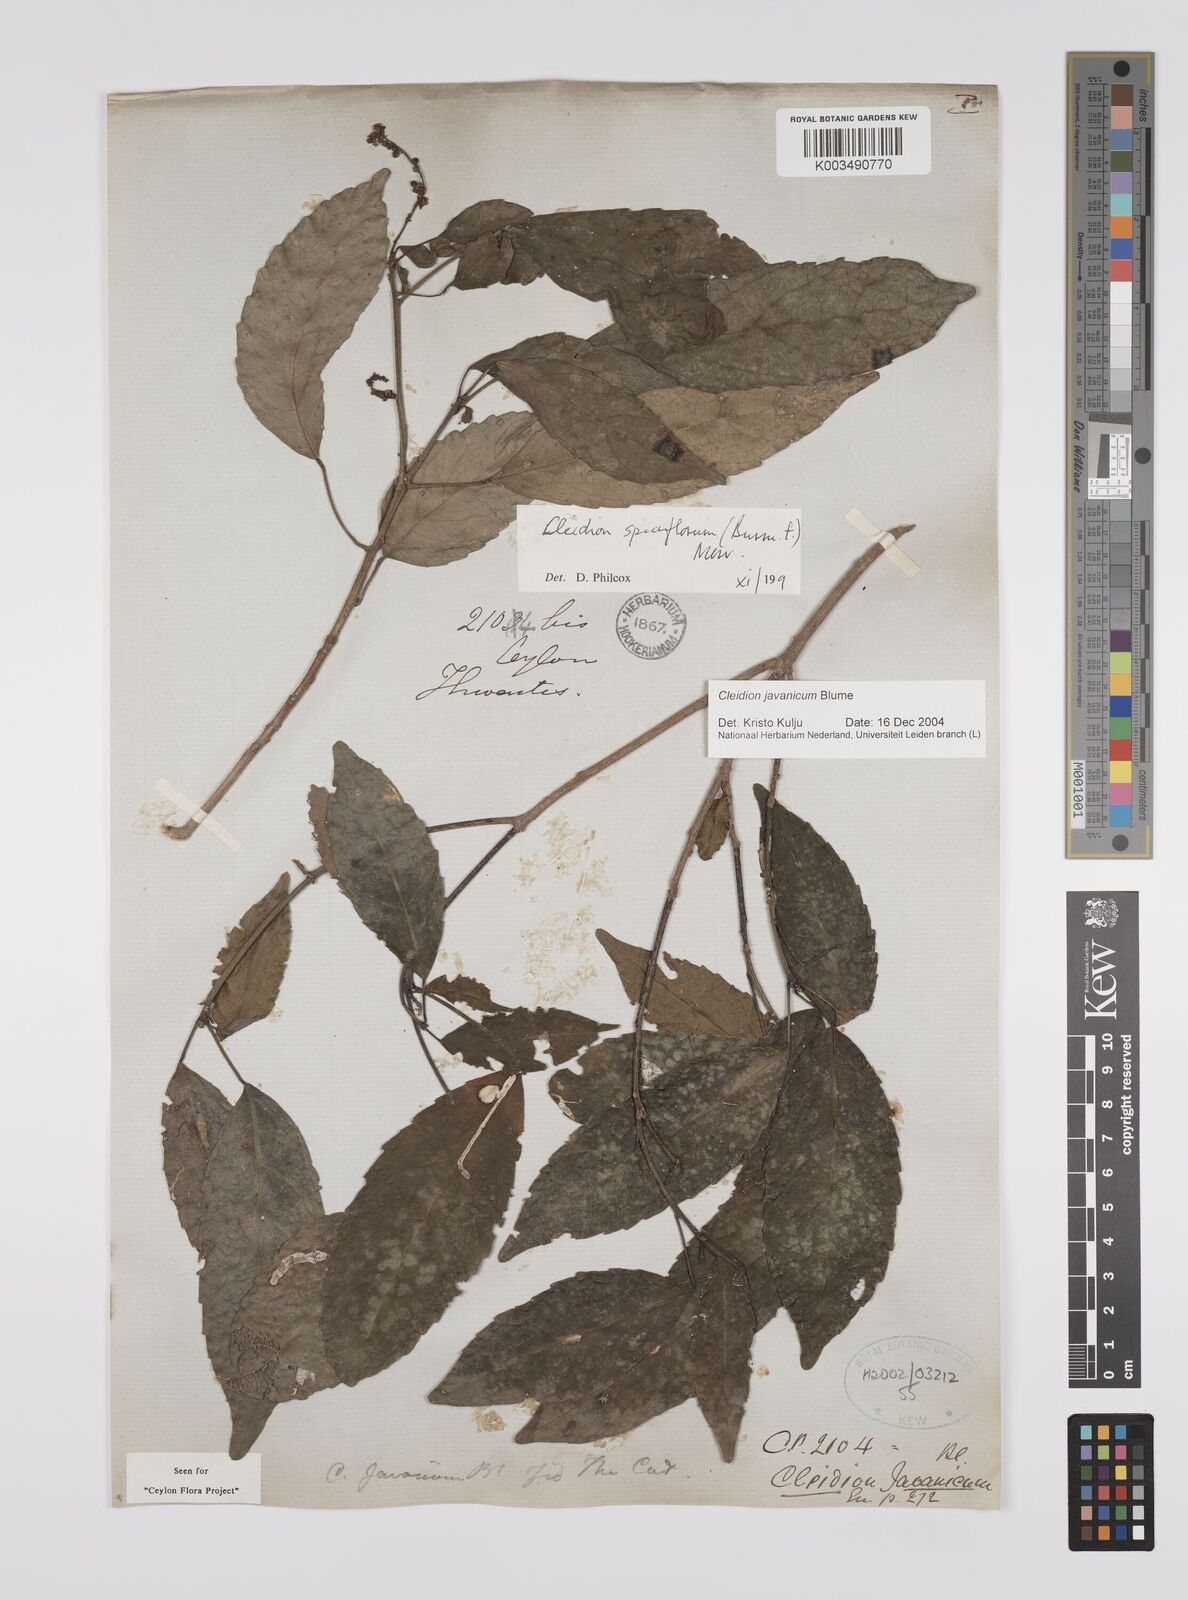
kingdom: Plantae
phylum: Tracheophyta
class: Magnoliopsida
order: Malpighiales
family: Euphorbiaceae
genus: Cleidion
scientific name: Cleidion javanicum
